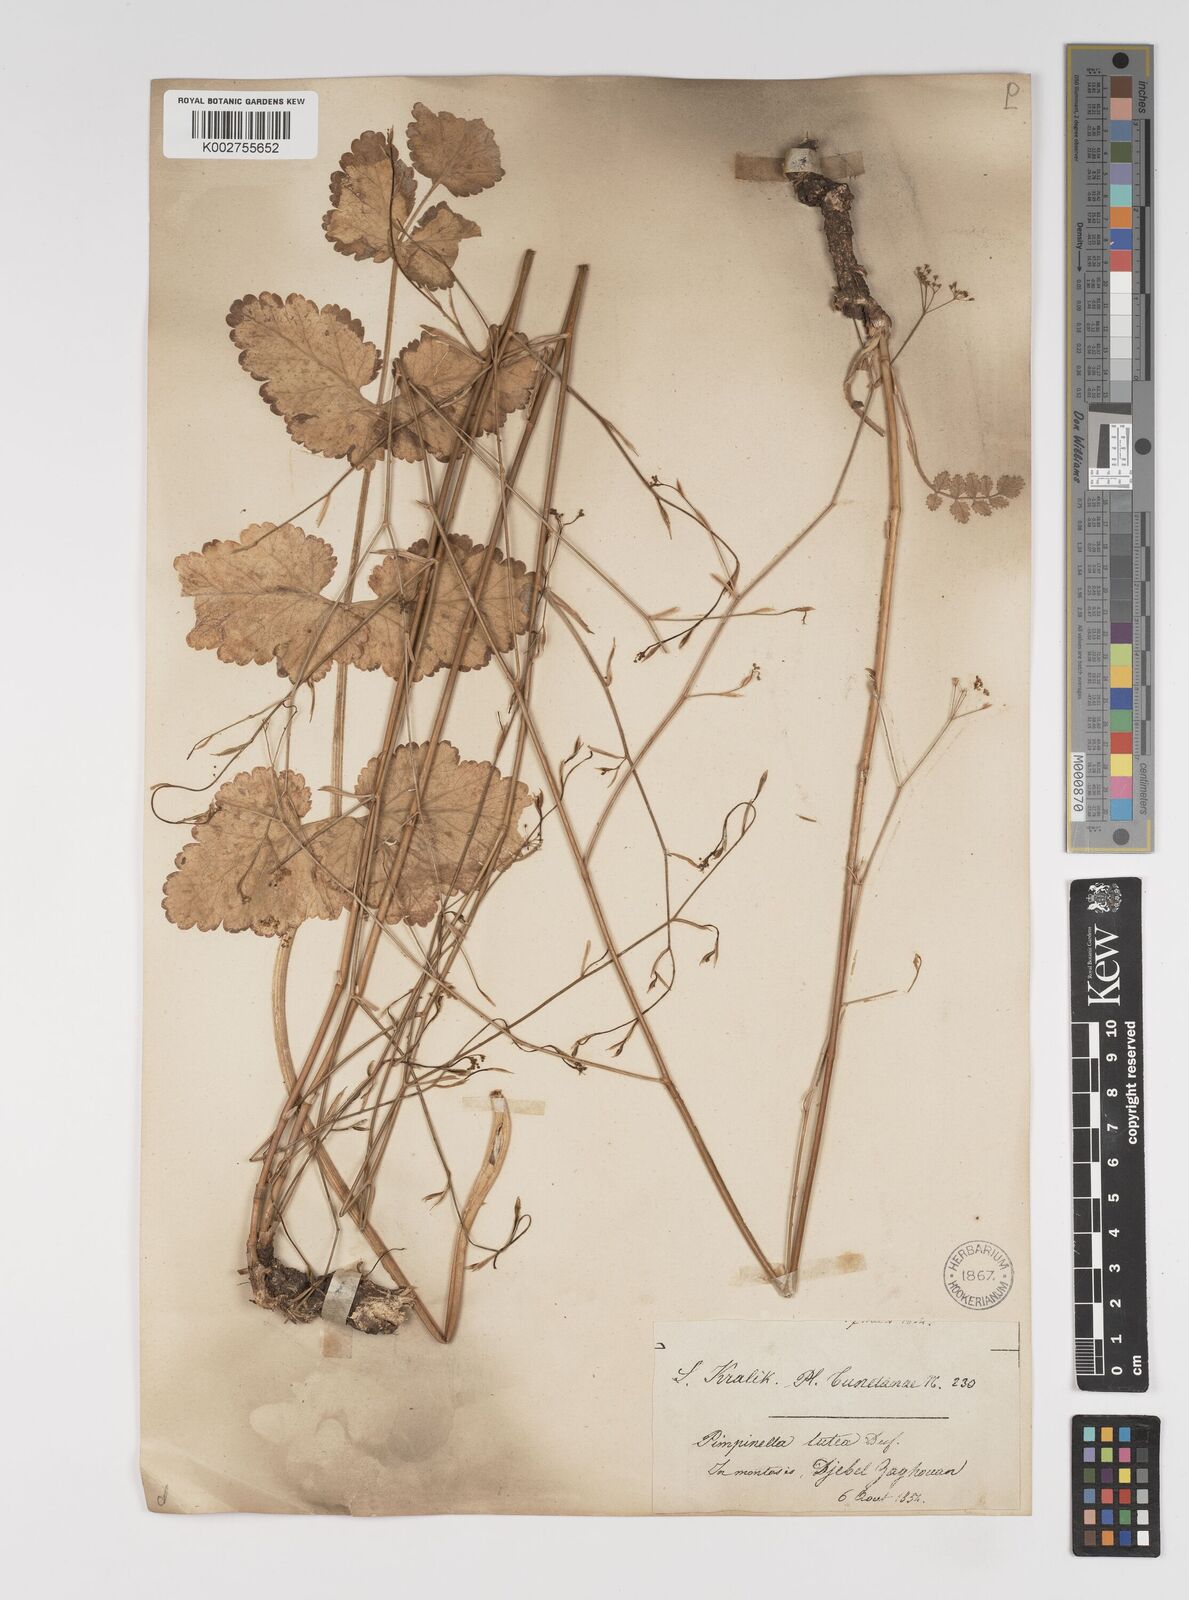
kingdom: Plantae
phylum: Tracheophyta
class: Magnoliopsida
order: Apiales
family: Apiaceae
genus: Pimpinella
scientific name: Pimpinella
